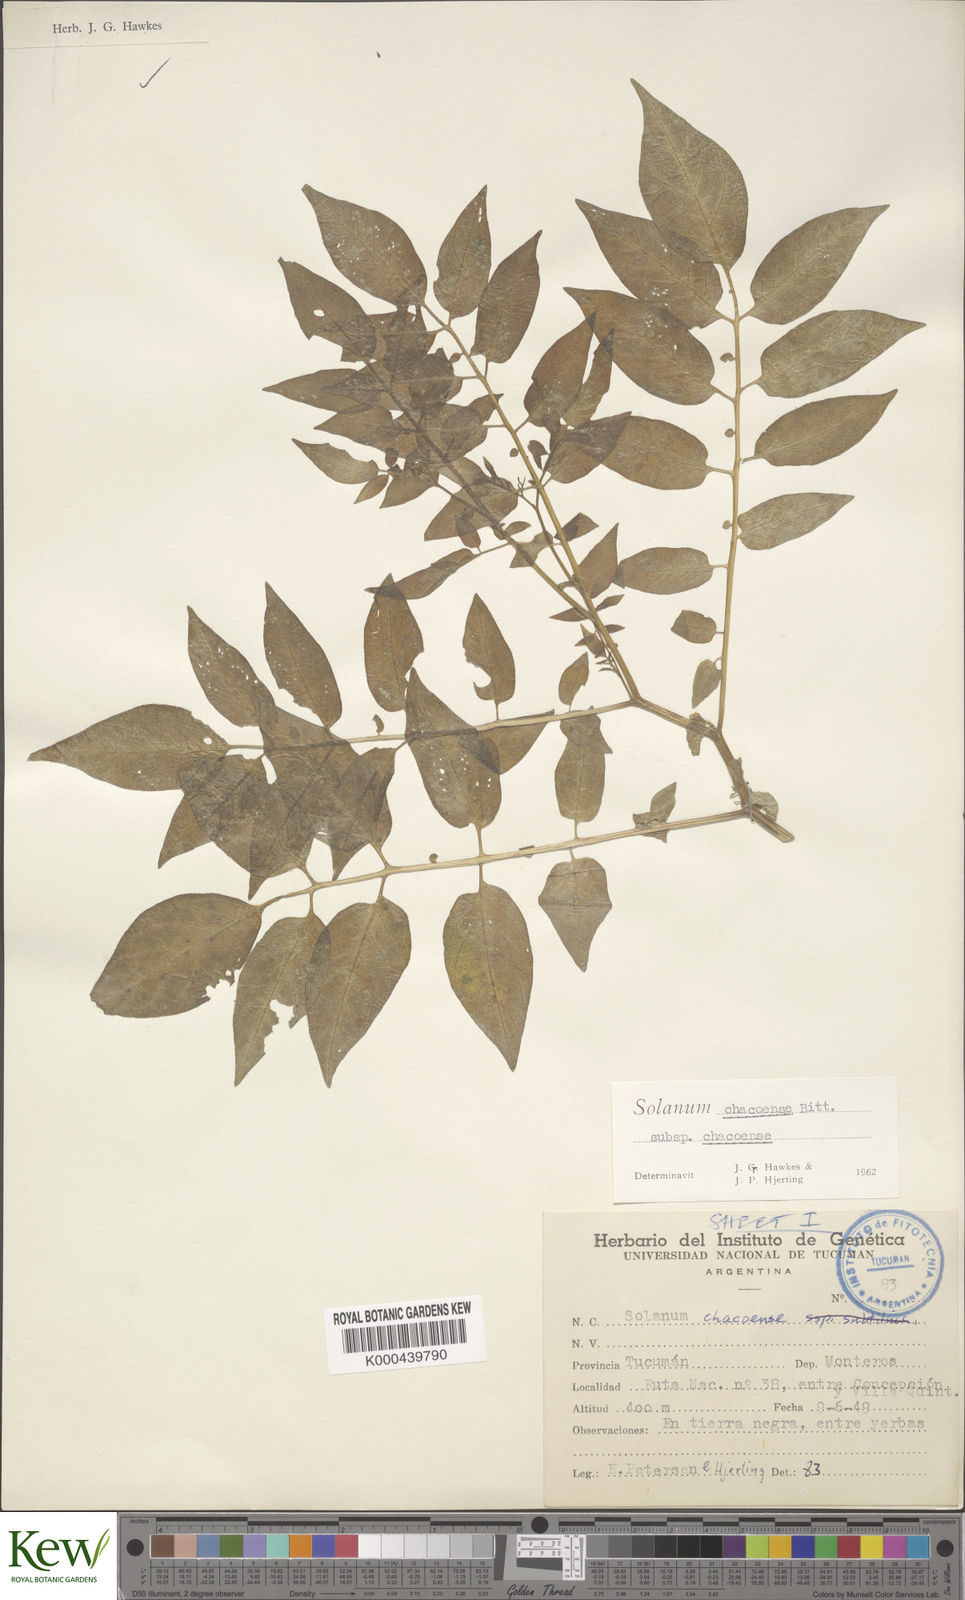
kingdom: Plantae
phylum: Tracheophyta
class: Magnoliopsida
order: Solanales
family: Solanaceae
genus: Solanum
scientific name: Solanum chacoense
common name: Chaco potato
